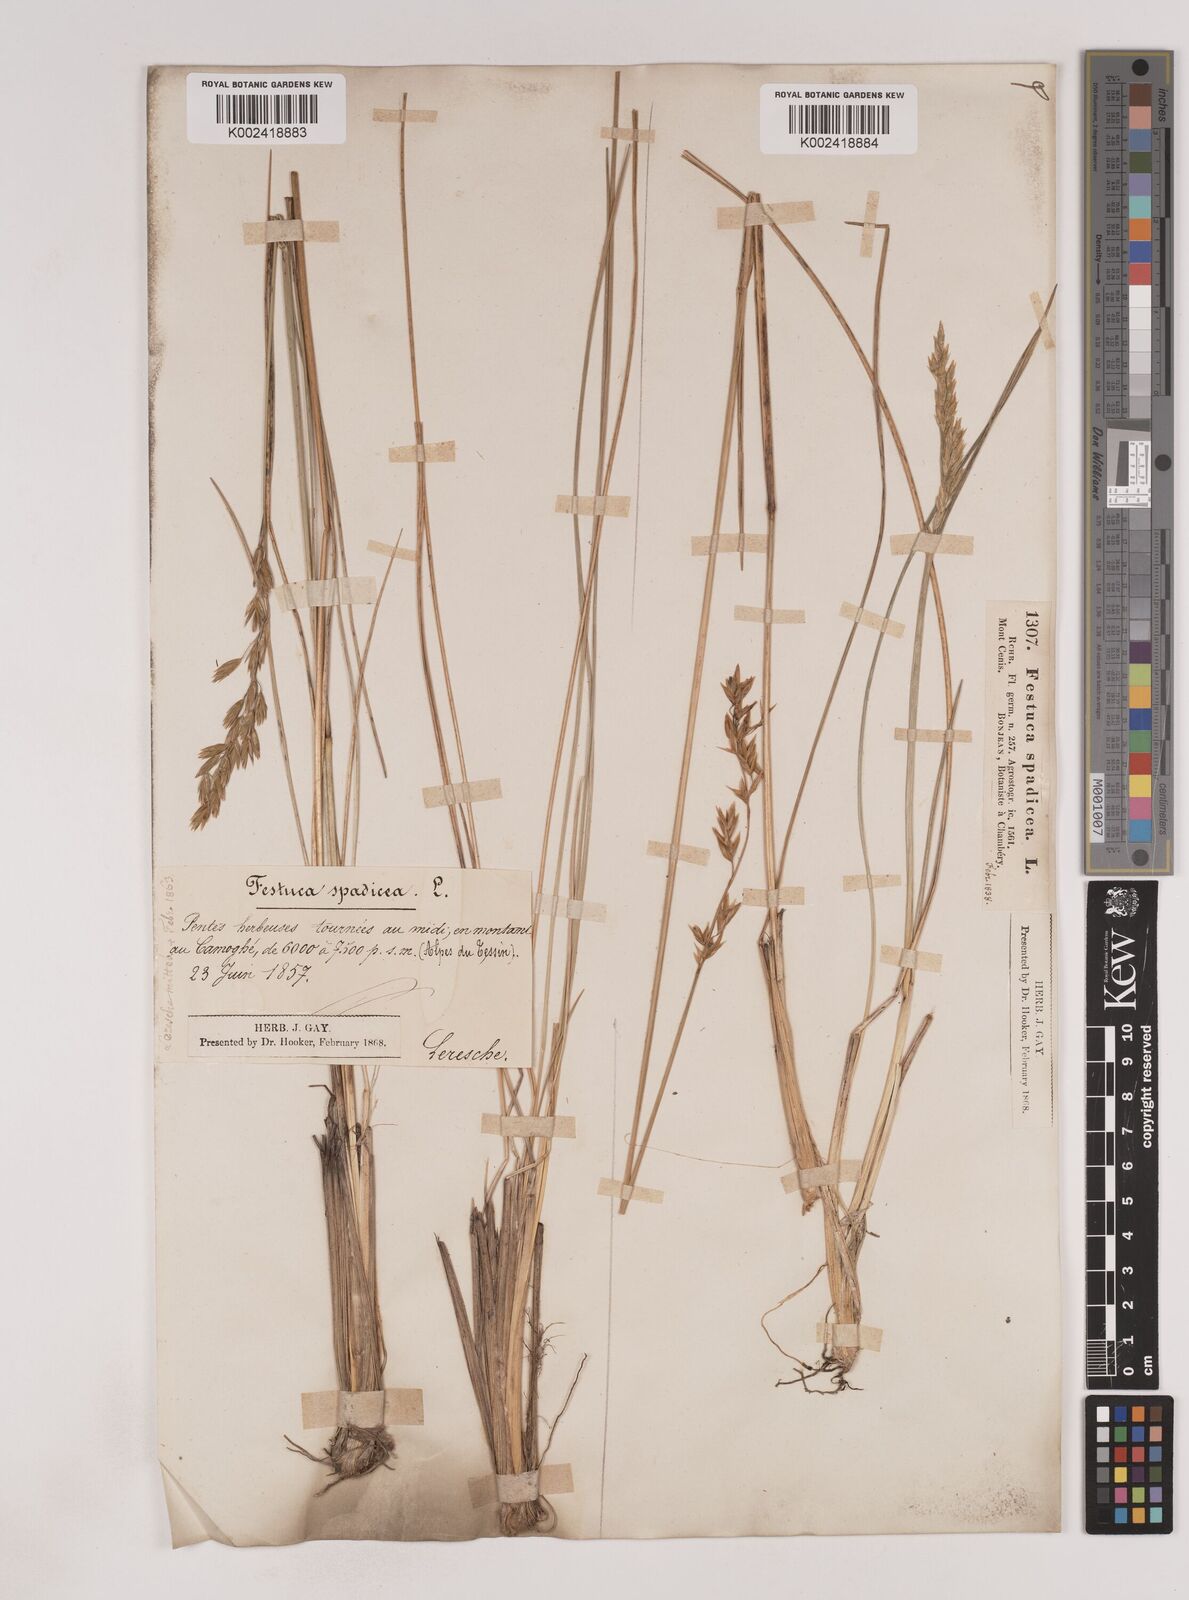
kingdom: Plantae
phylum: Tracheophyta
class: Liliopsida
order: Poales
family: Poaceae
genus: Patzkea
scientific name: Patzkea paniculata
